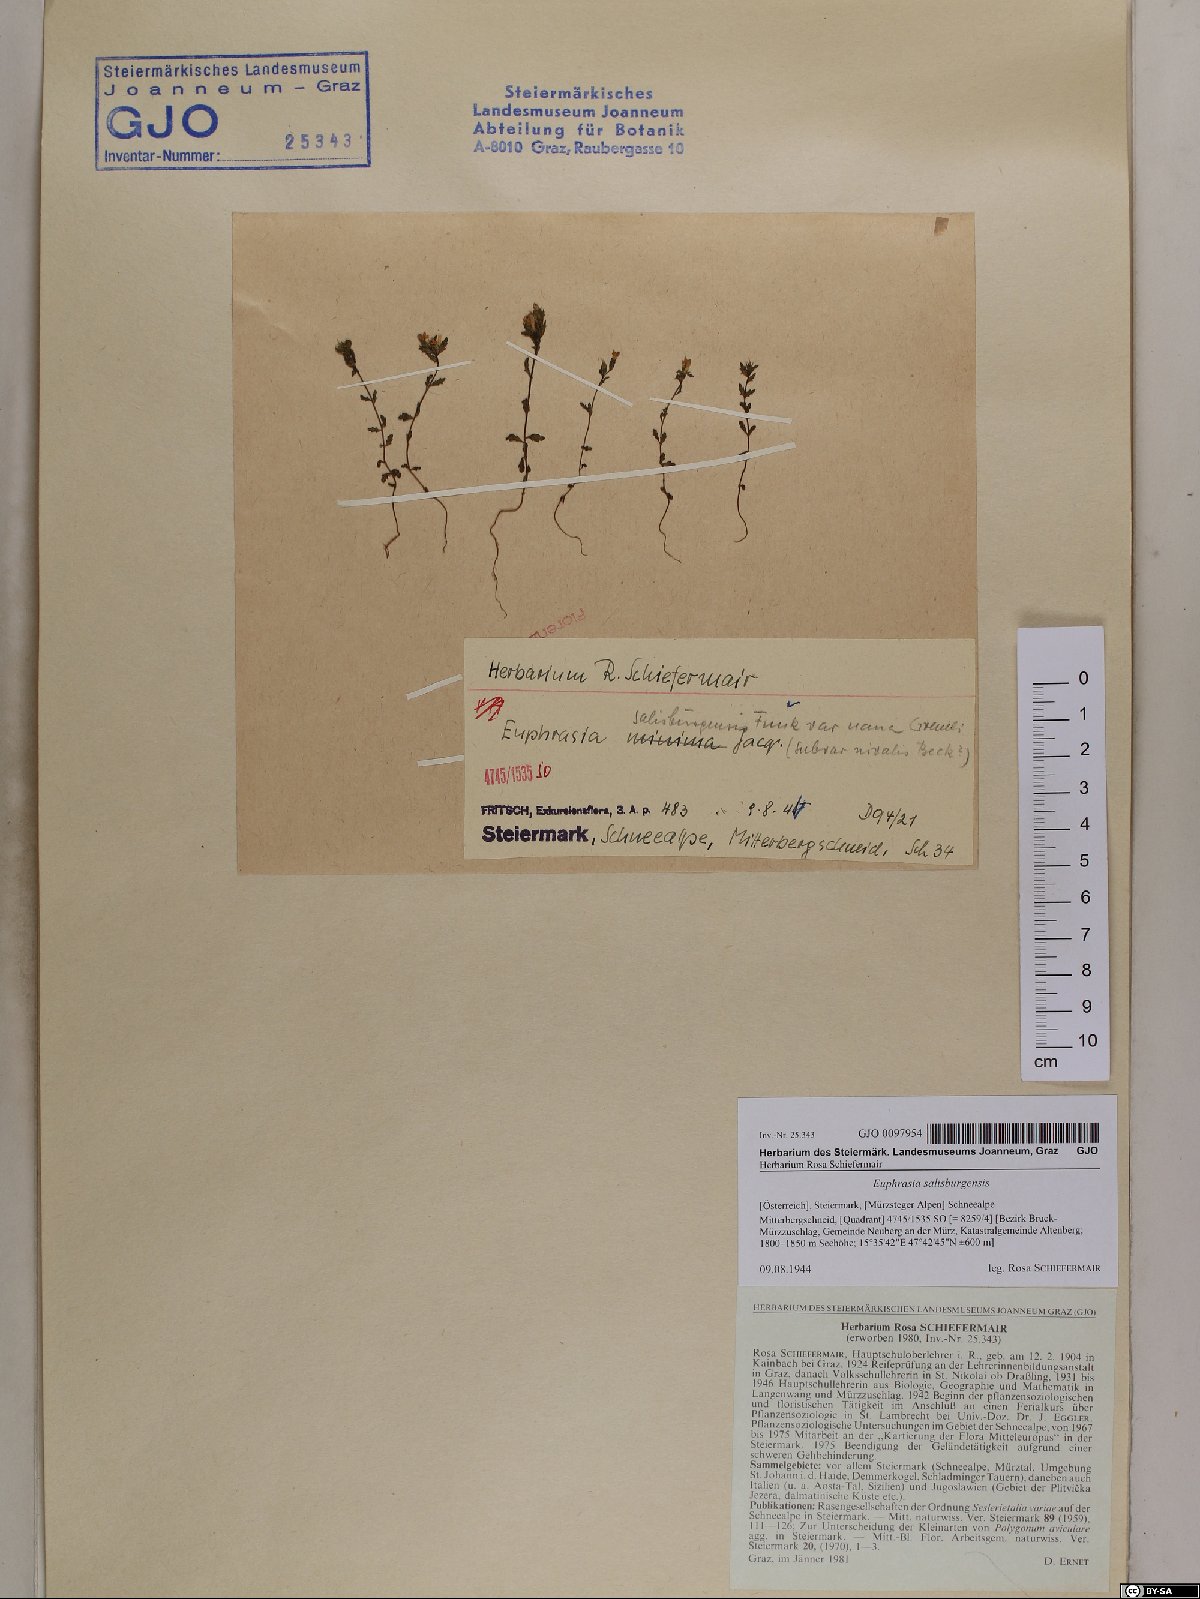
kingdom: Plantae
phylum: Tracheophyta
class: Magnoliopsida
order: Lamiales
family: Orobanchaceae
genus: Euphrasia
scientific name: Euphrasia salisburgensis
